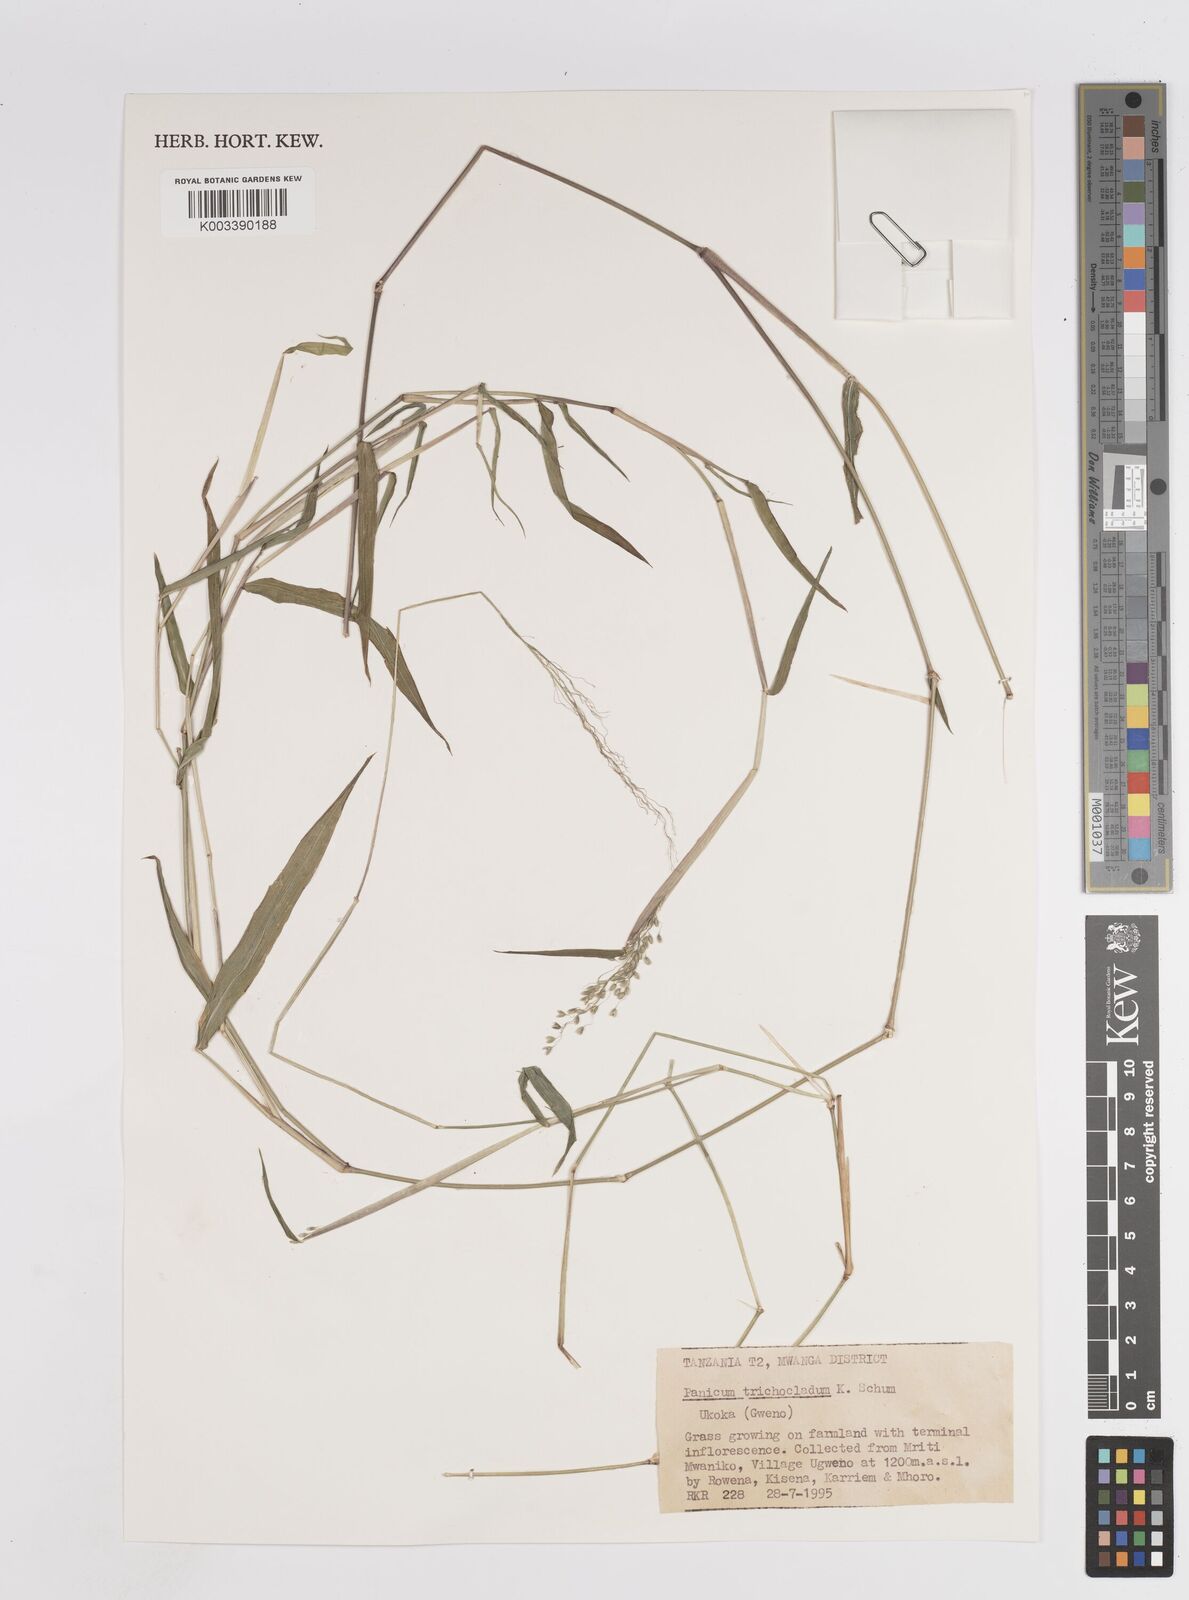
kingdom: Plantae
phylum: Tracheophyta
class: Liliopsida
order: Poales
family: Poaceae
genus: Panicum
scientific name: Panicum trichocladum
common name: Donkey grass
